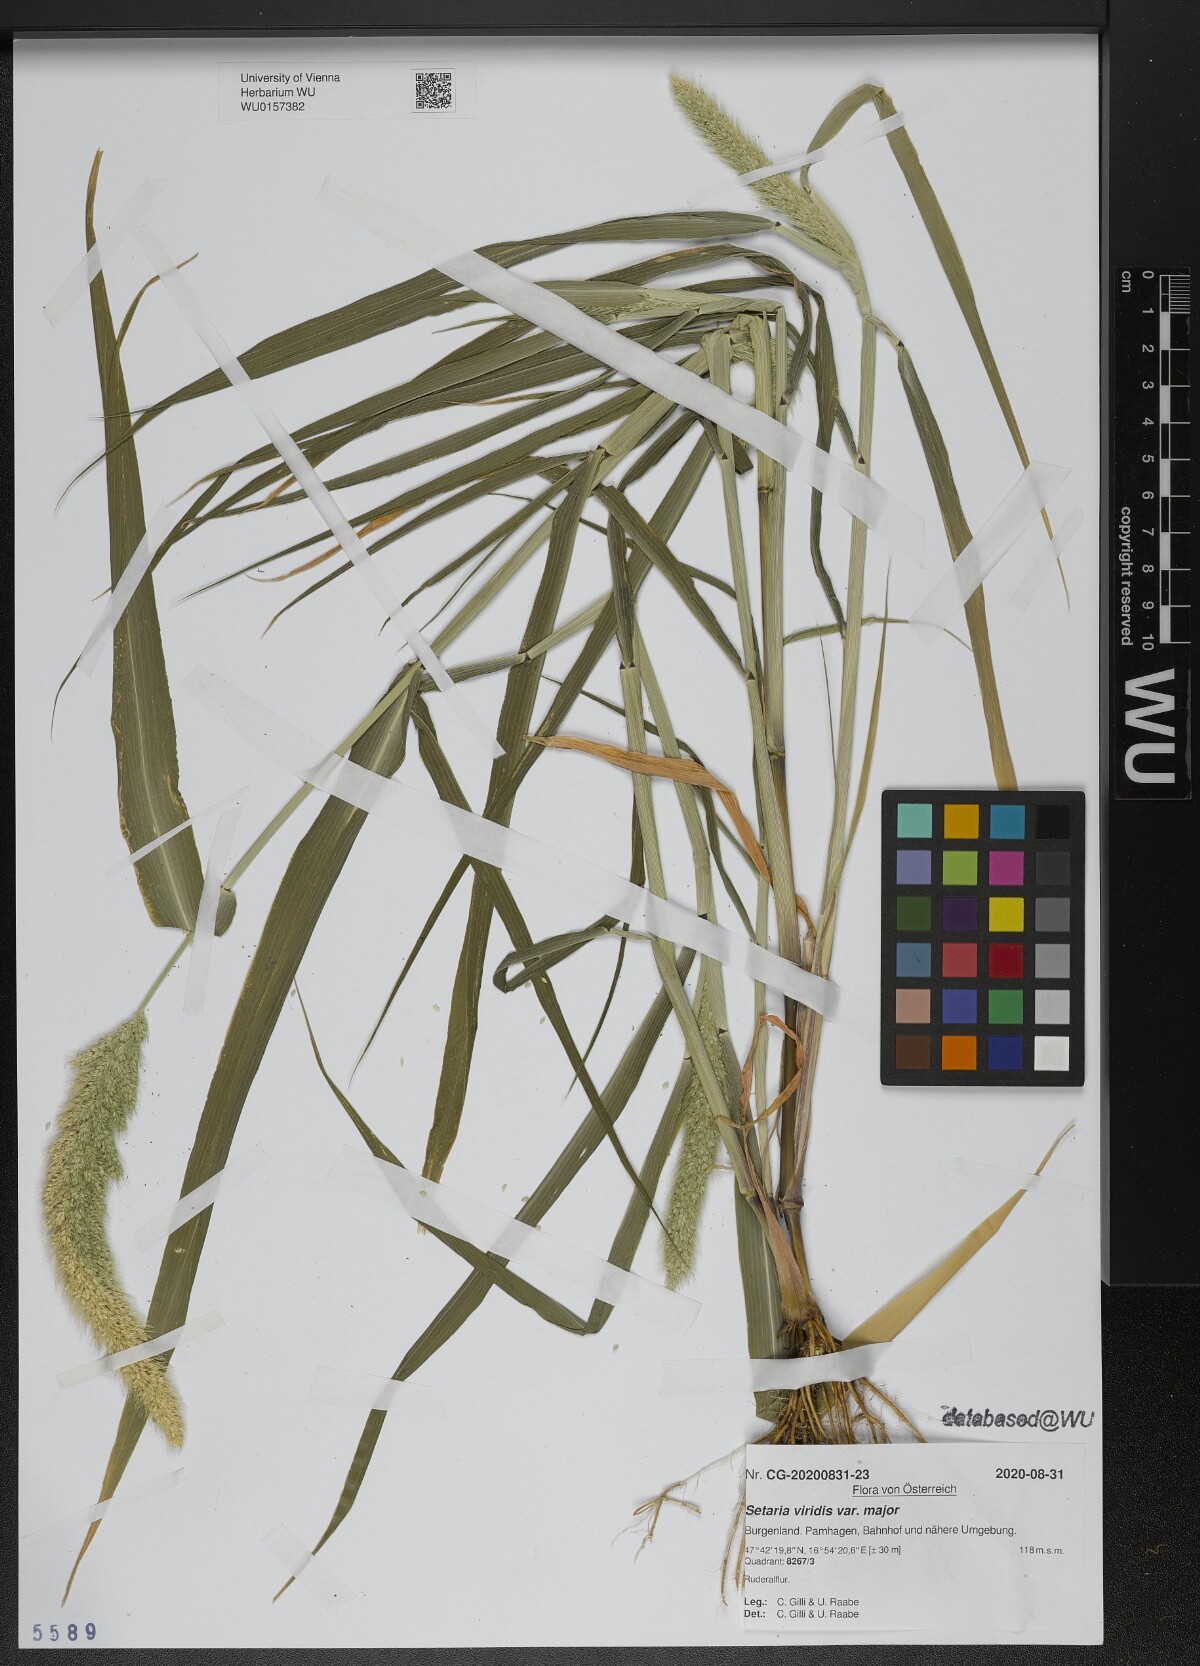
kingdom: Plantae
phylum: Tracheophyta
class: Liliopsida
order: Poales
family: Poaceae
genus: Setaria
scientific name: Setaria viridis
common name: Green bristlegrass
